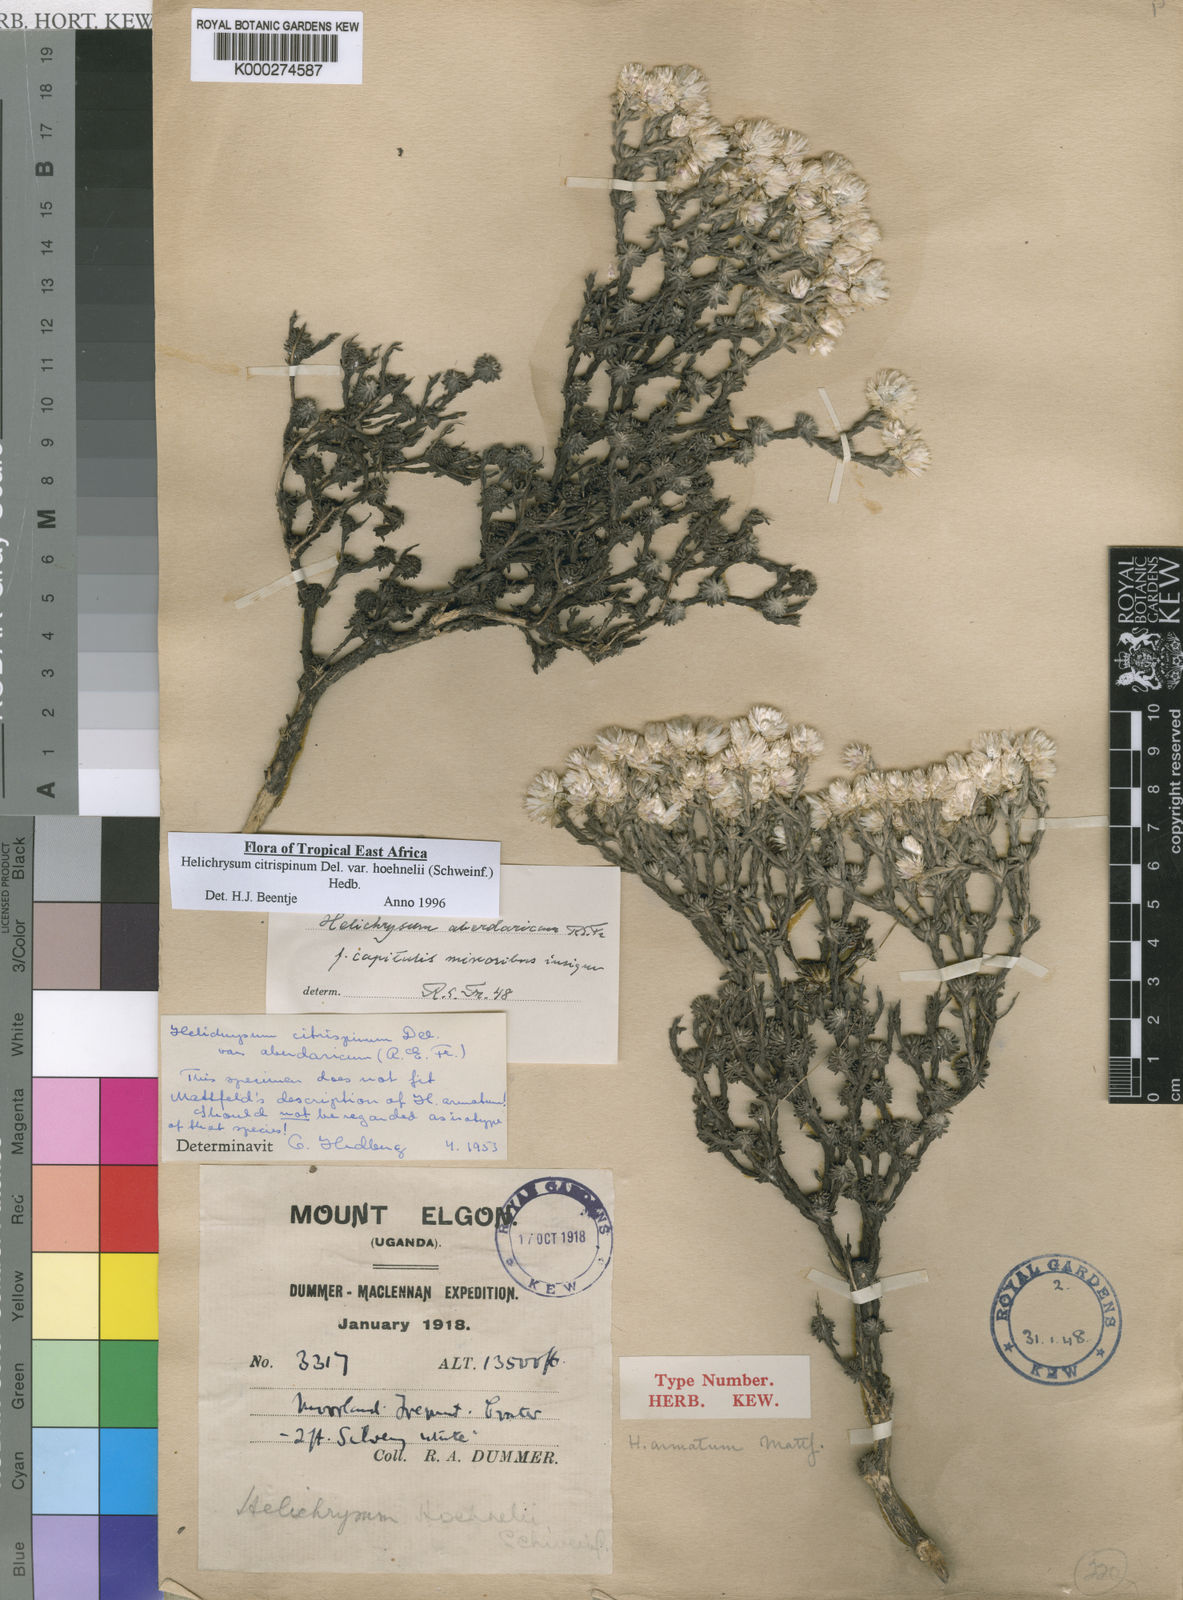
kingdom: Plantae
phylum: Tracheophyta
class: Magnoliopsida
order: Asterales
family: Asteraceae
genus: Helichrysum
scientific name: Helichrysum citrispinum
